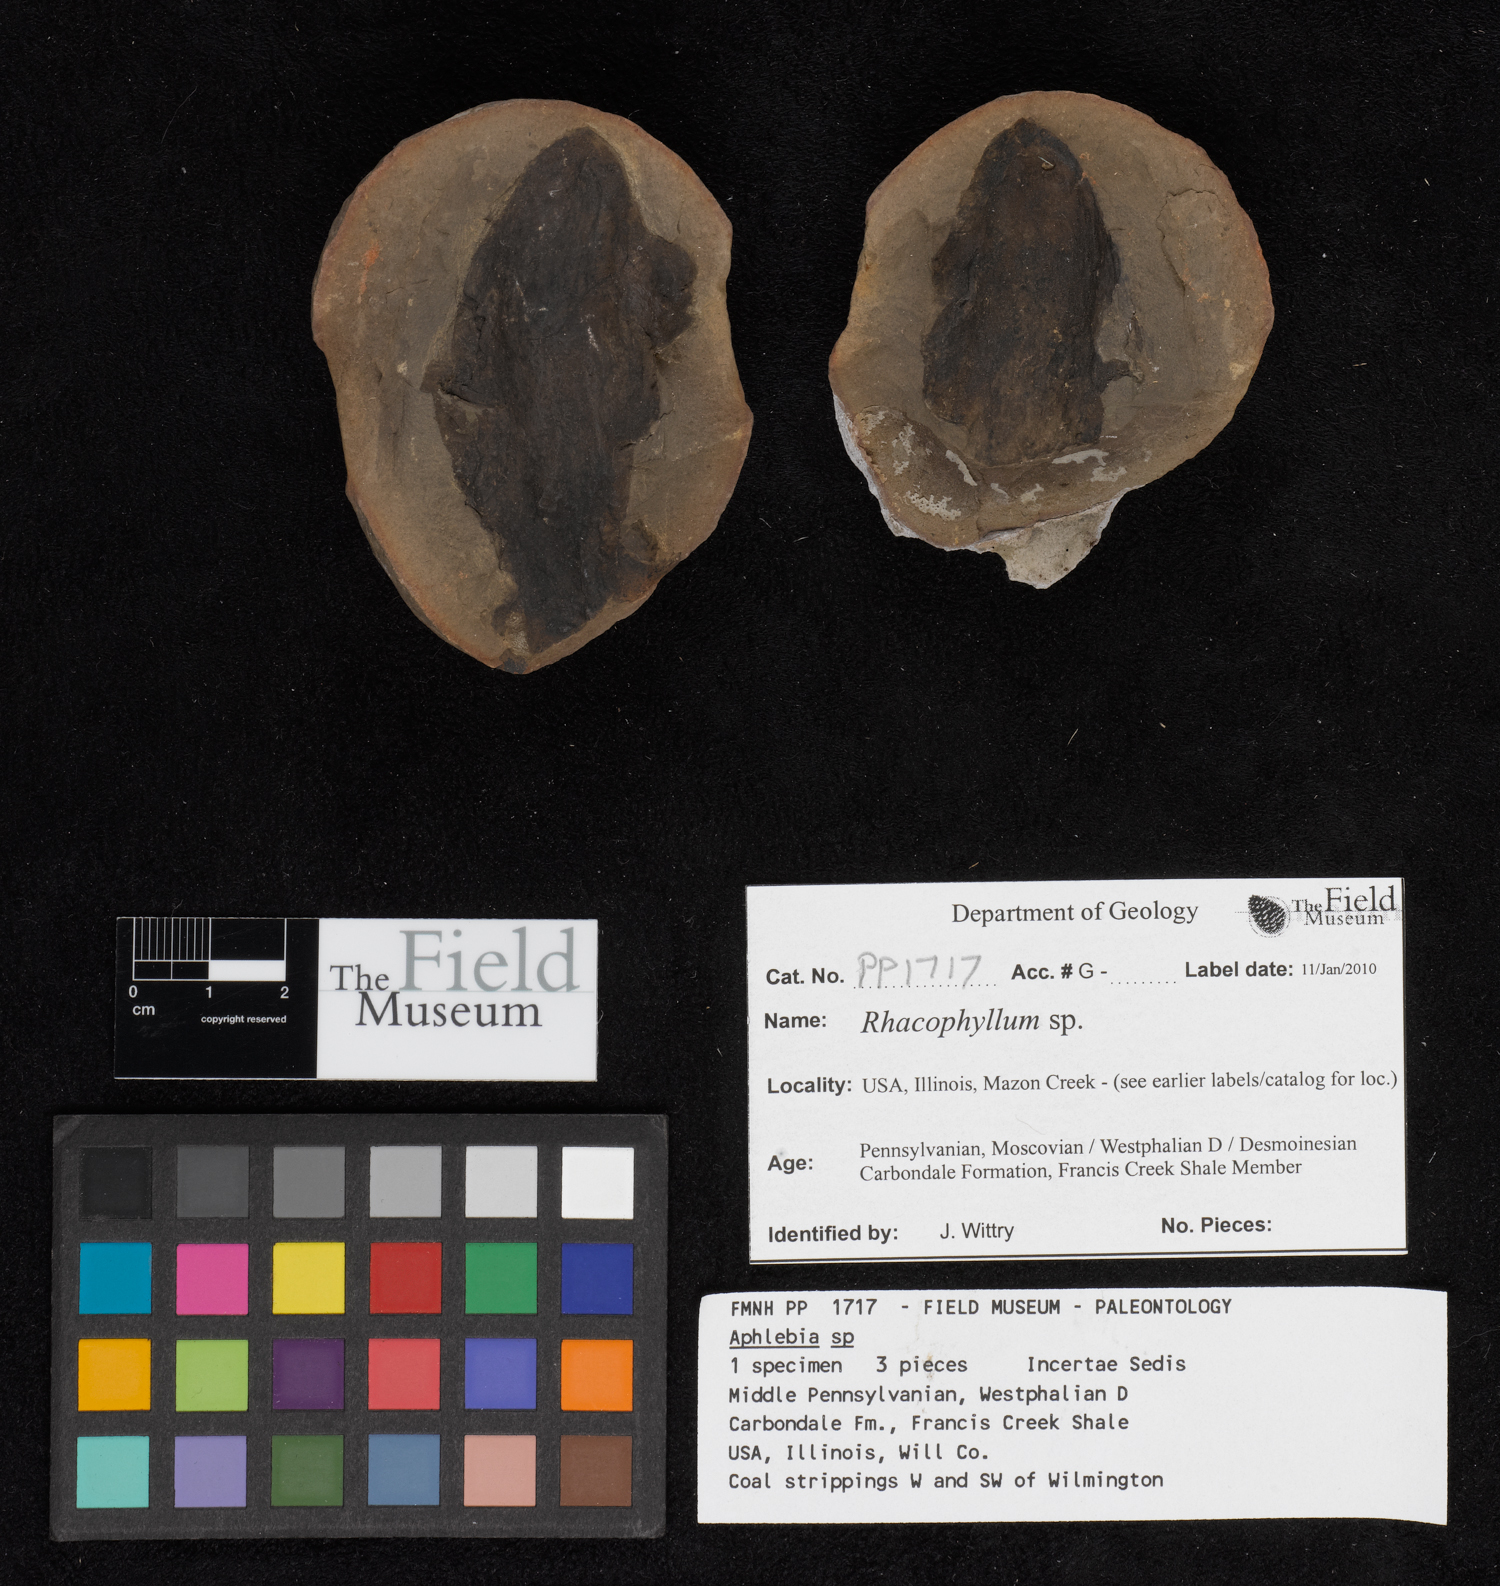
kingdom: Plantae
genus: Rhacophyllum
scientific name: Rhacophyllum
